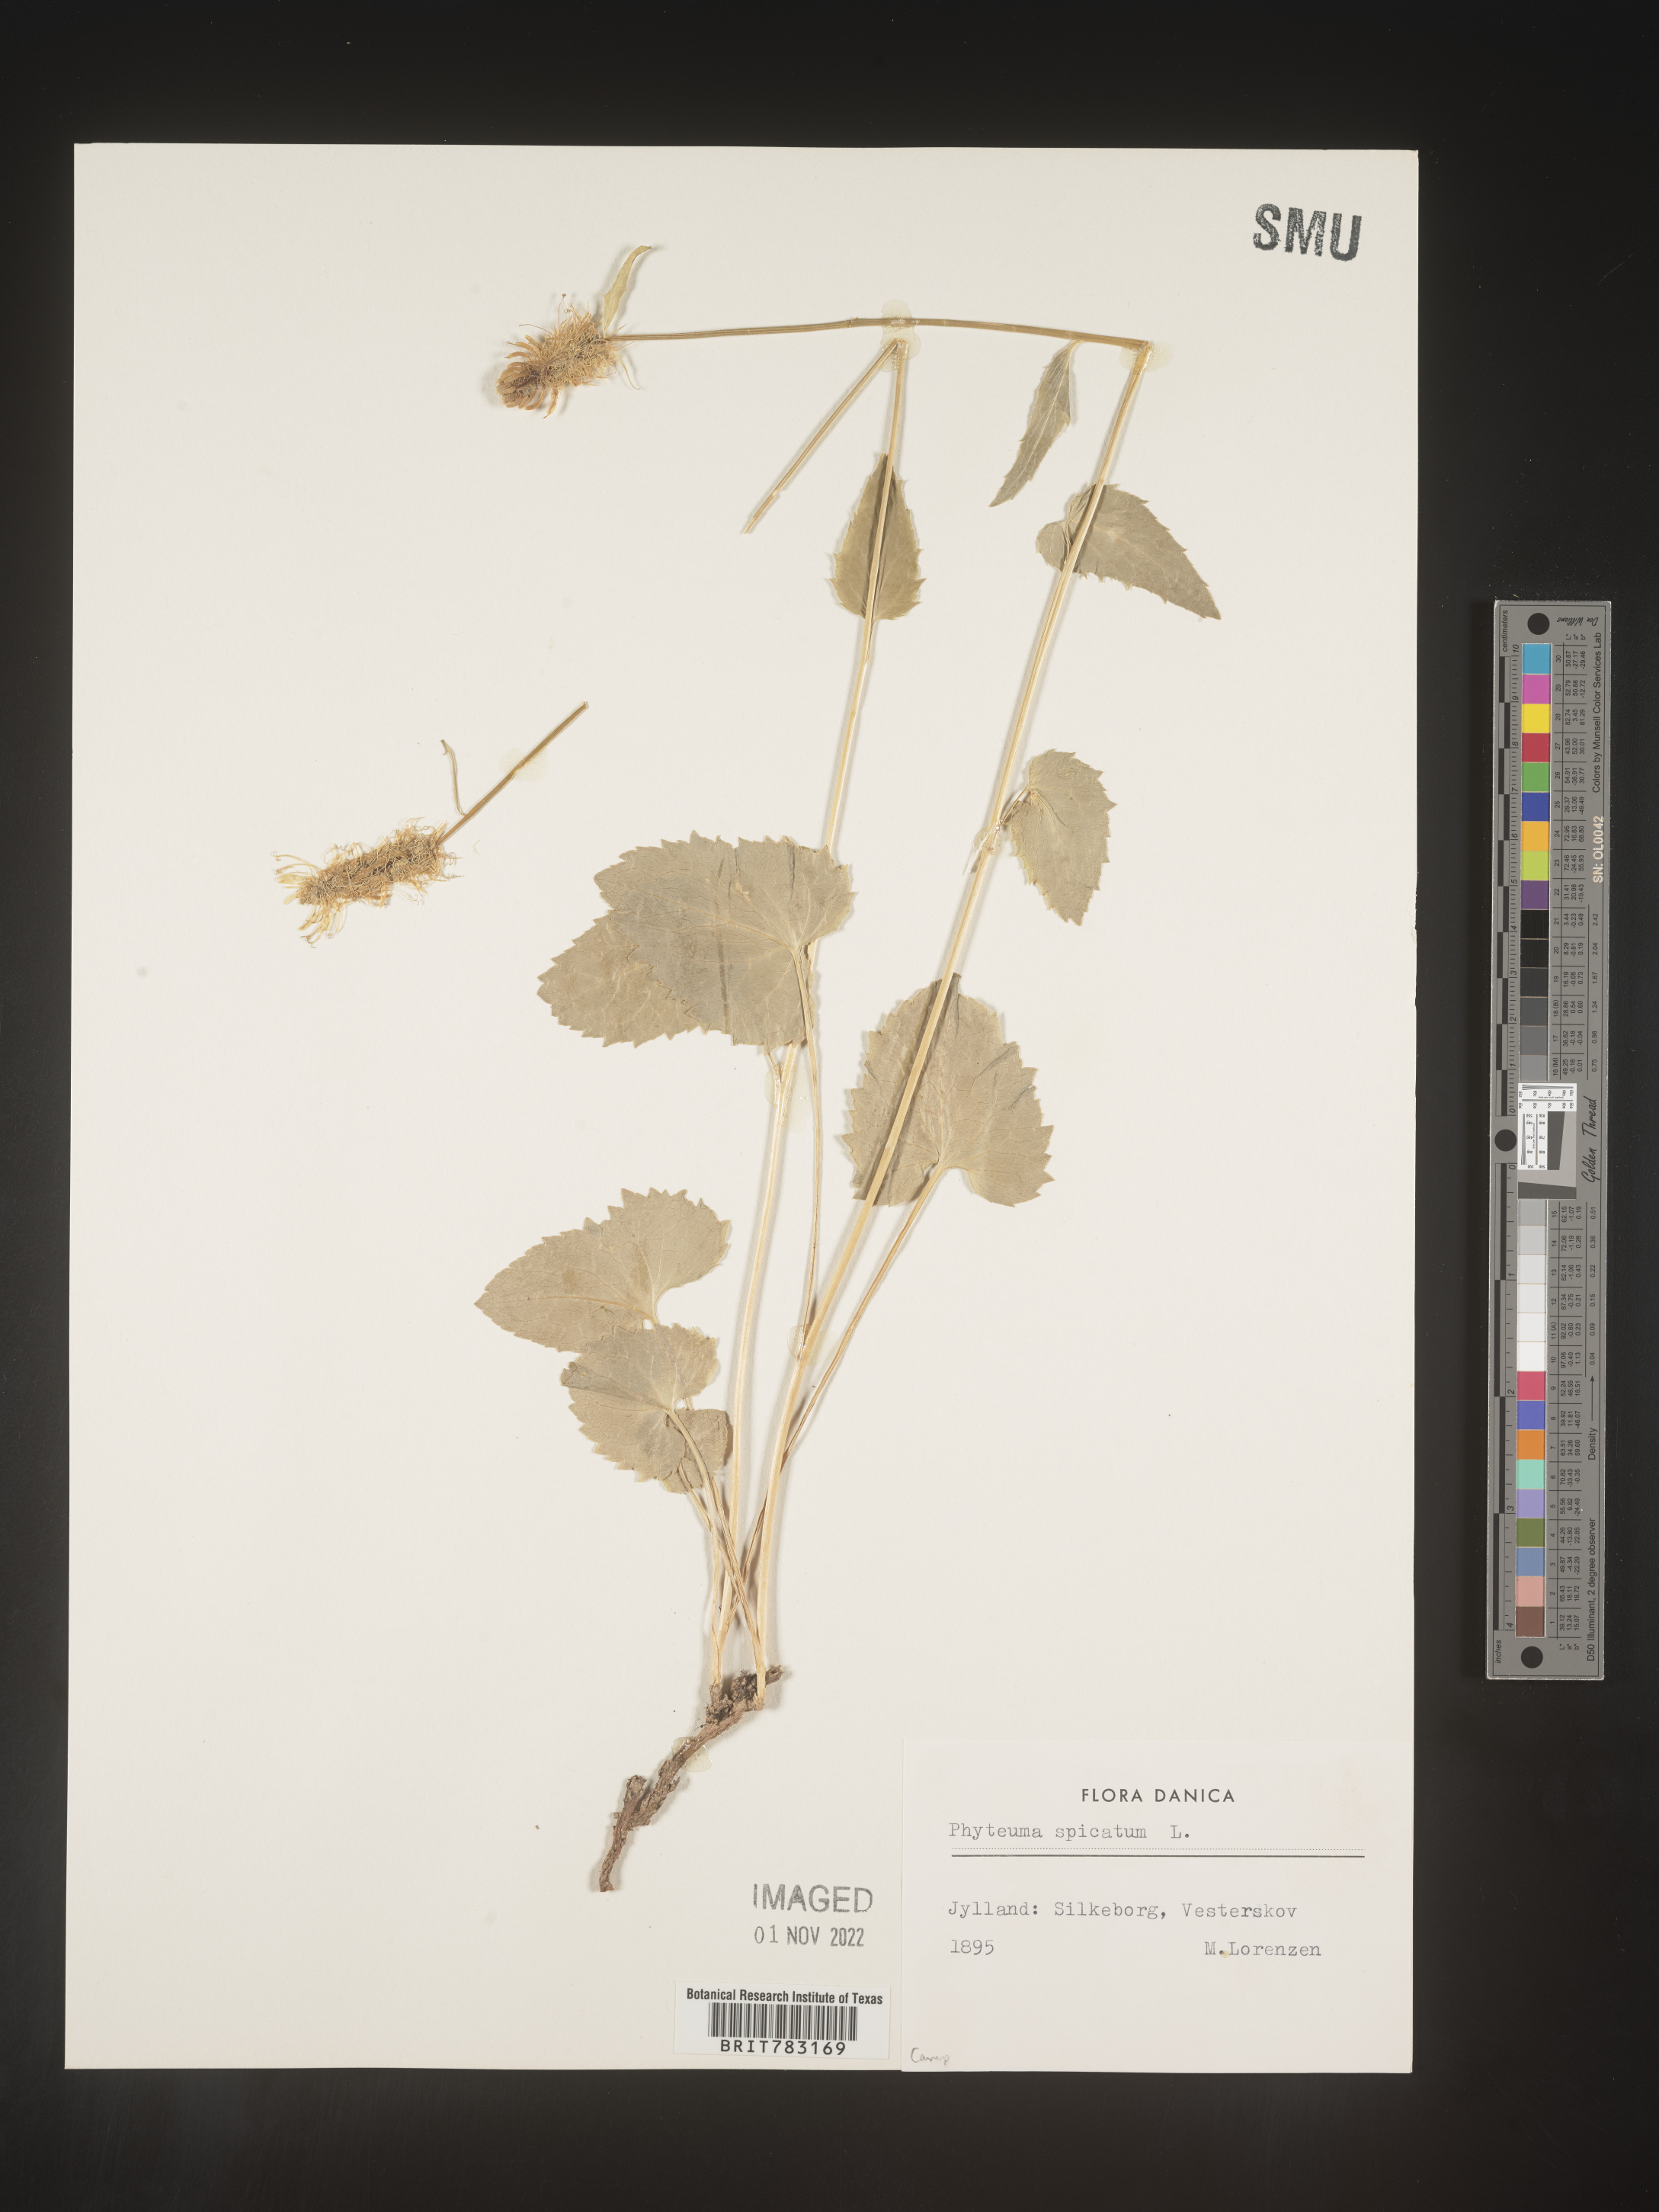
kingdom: Plantae
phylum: Tracheophyta
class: Magnoliopsida
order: Asterales
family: Campanulaceae
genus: Phyteuma
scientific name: Phyteuma
